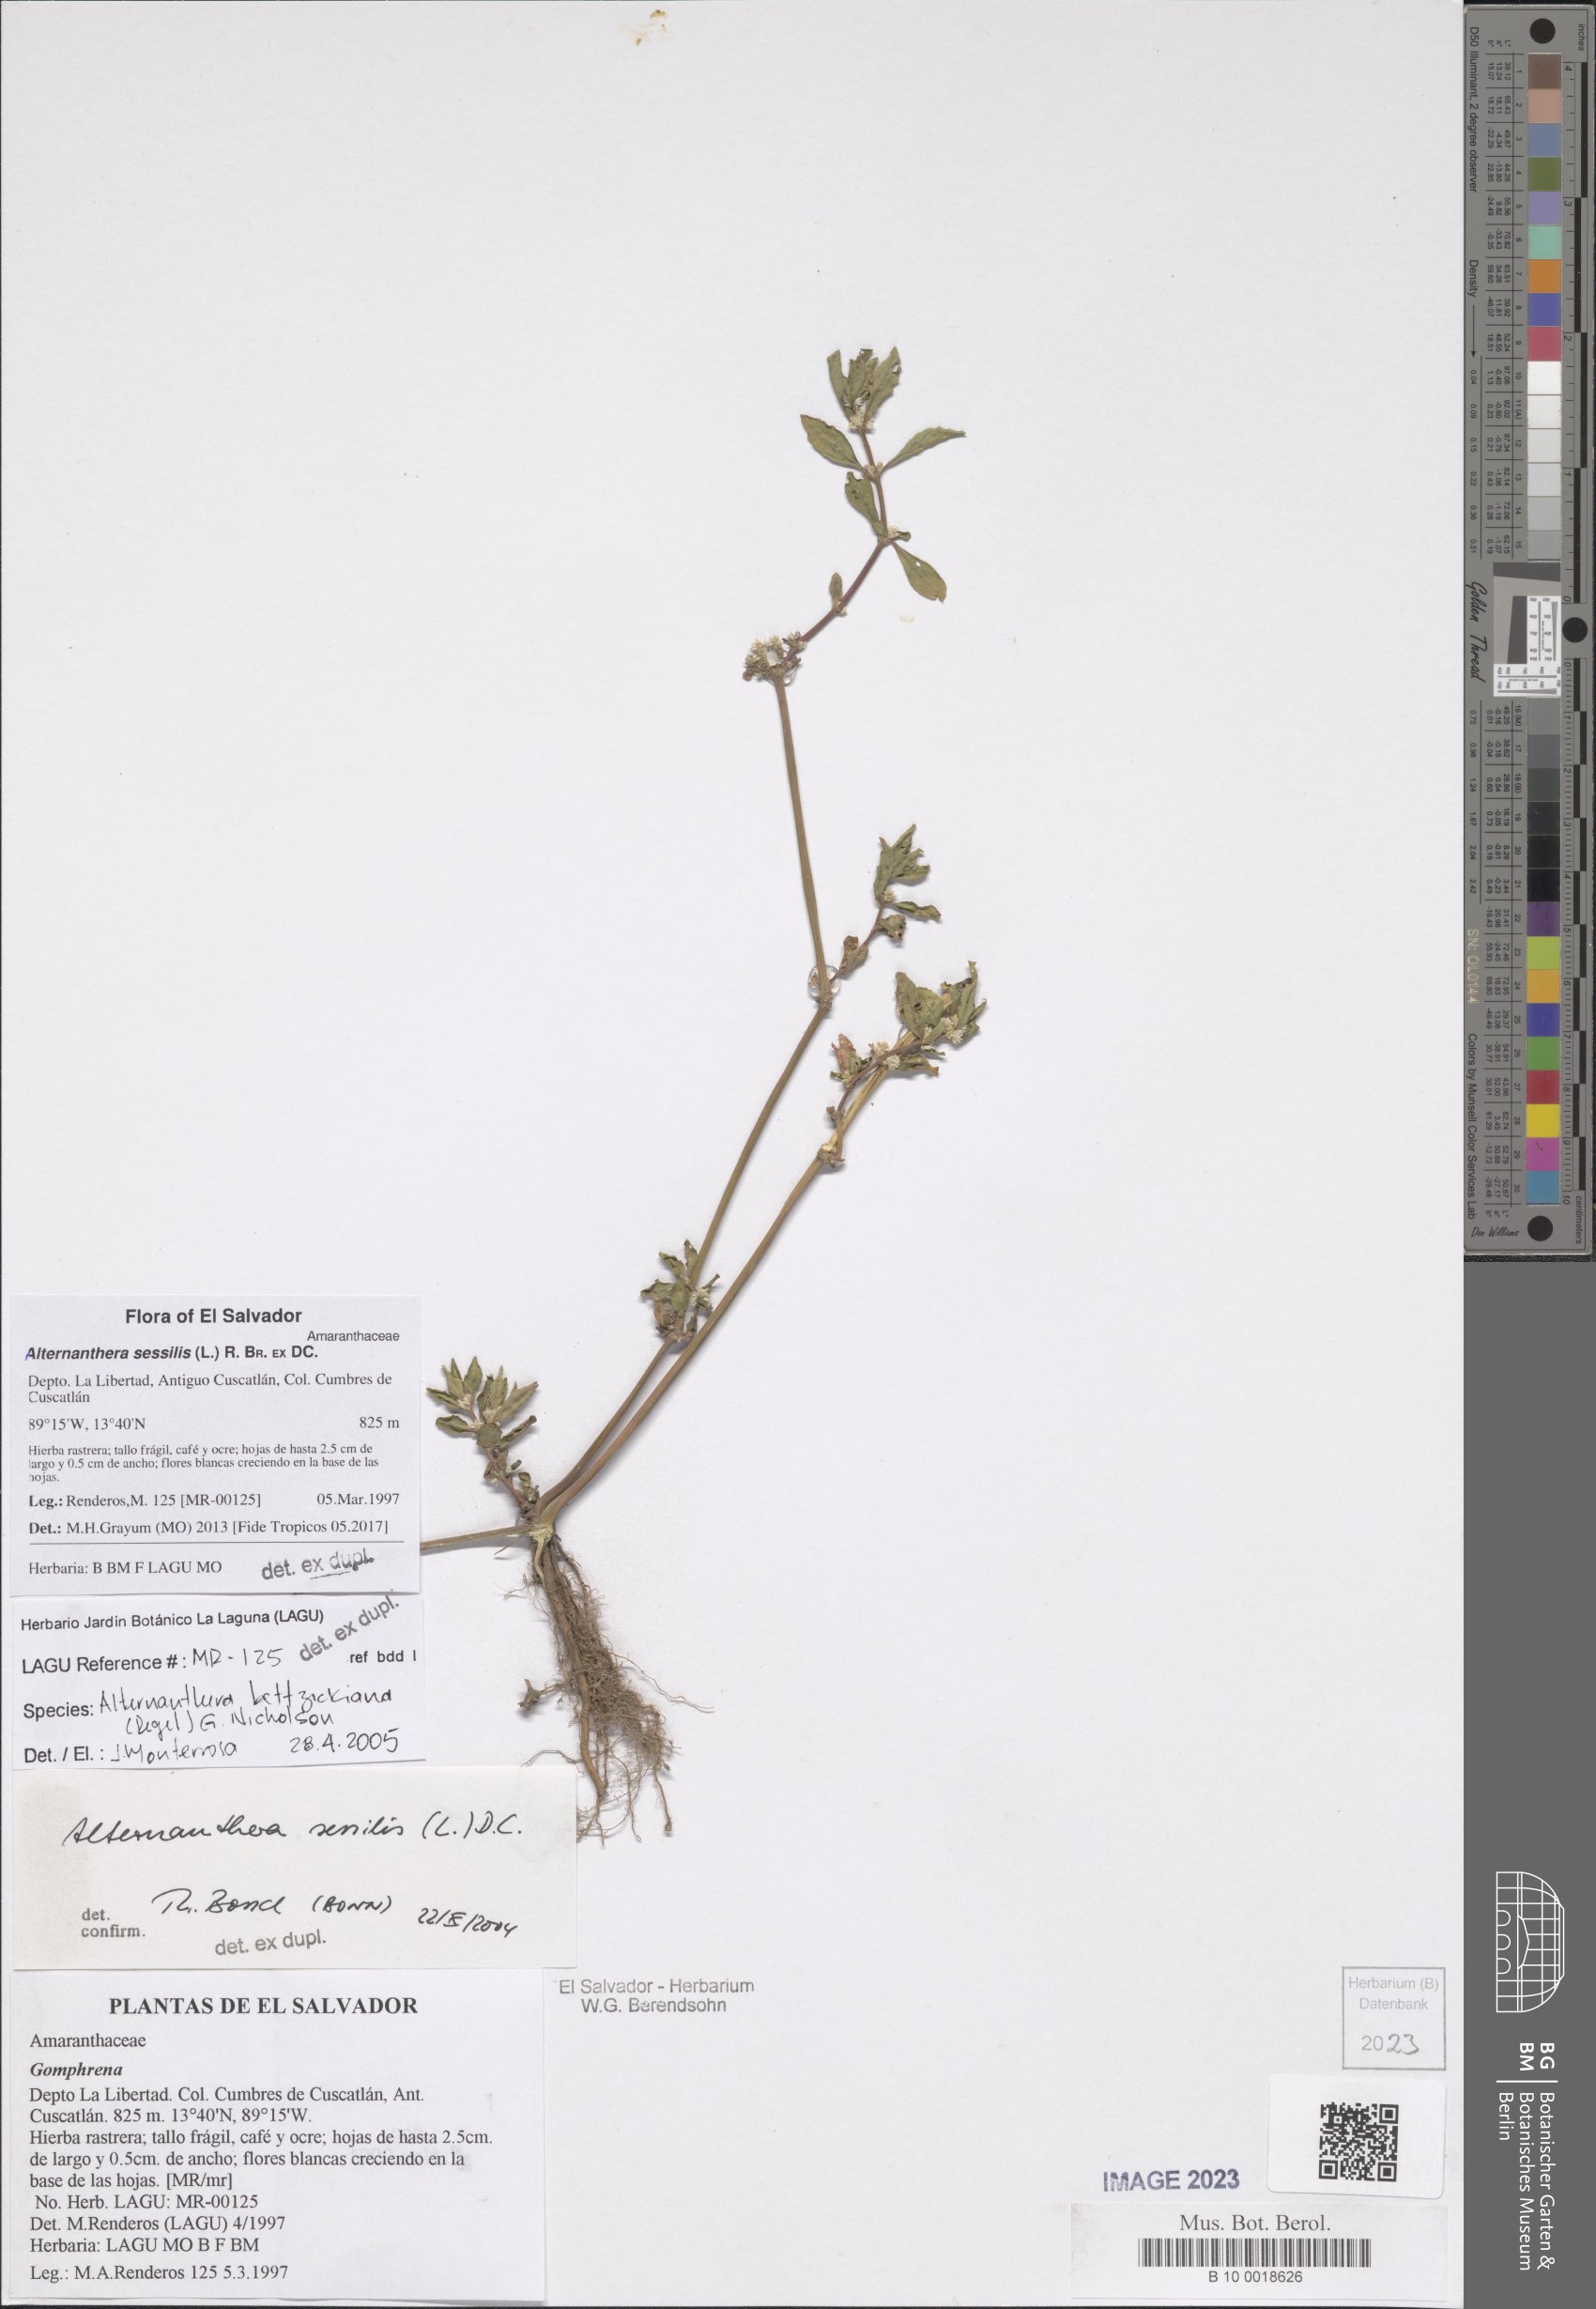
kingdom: Plantae
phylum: Tracheophyta
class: Magnoliopsida
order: Caryophyllales
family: Amaranthaceae
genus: Alternanthera
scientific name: Alternanthera sessilis
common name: Sessile joyweed
